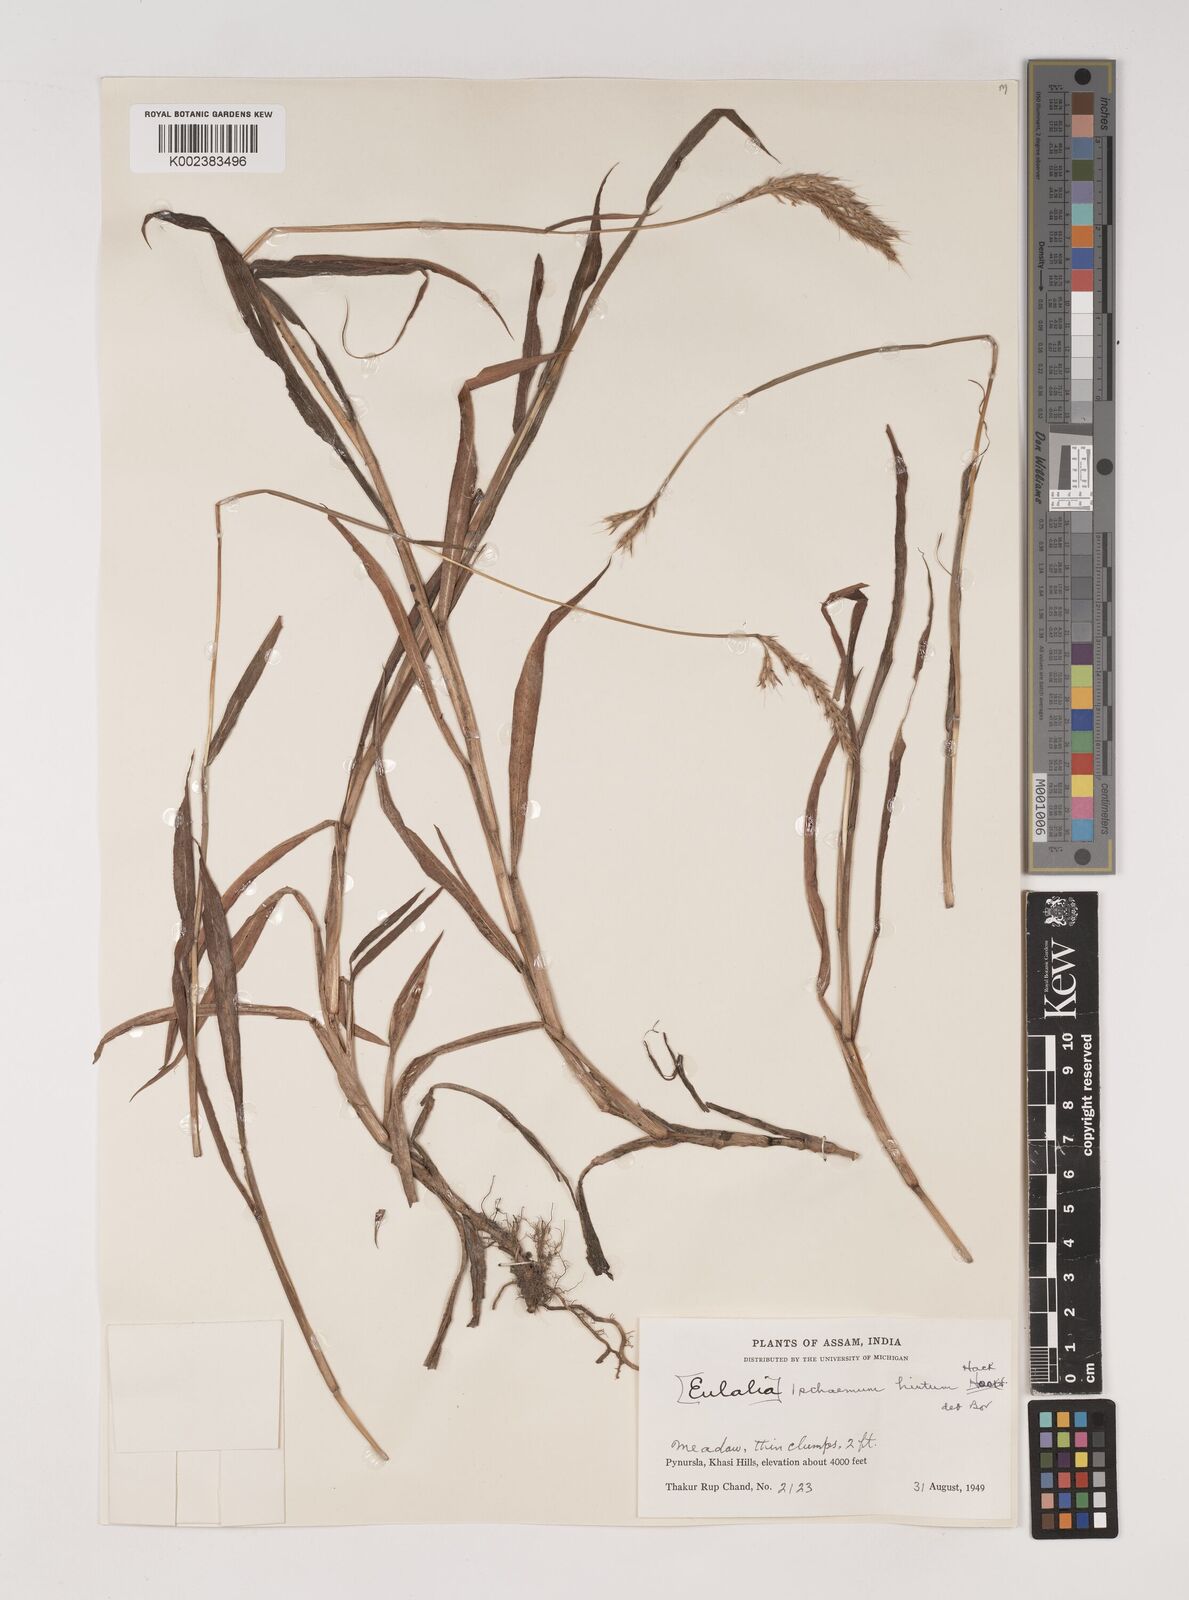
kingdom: Plantae
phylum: Tracheophyta
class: Liliopsida
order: Poales
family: Poaceae
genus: Ischaemum
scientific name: Ischaemum
